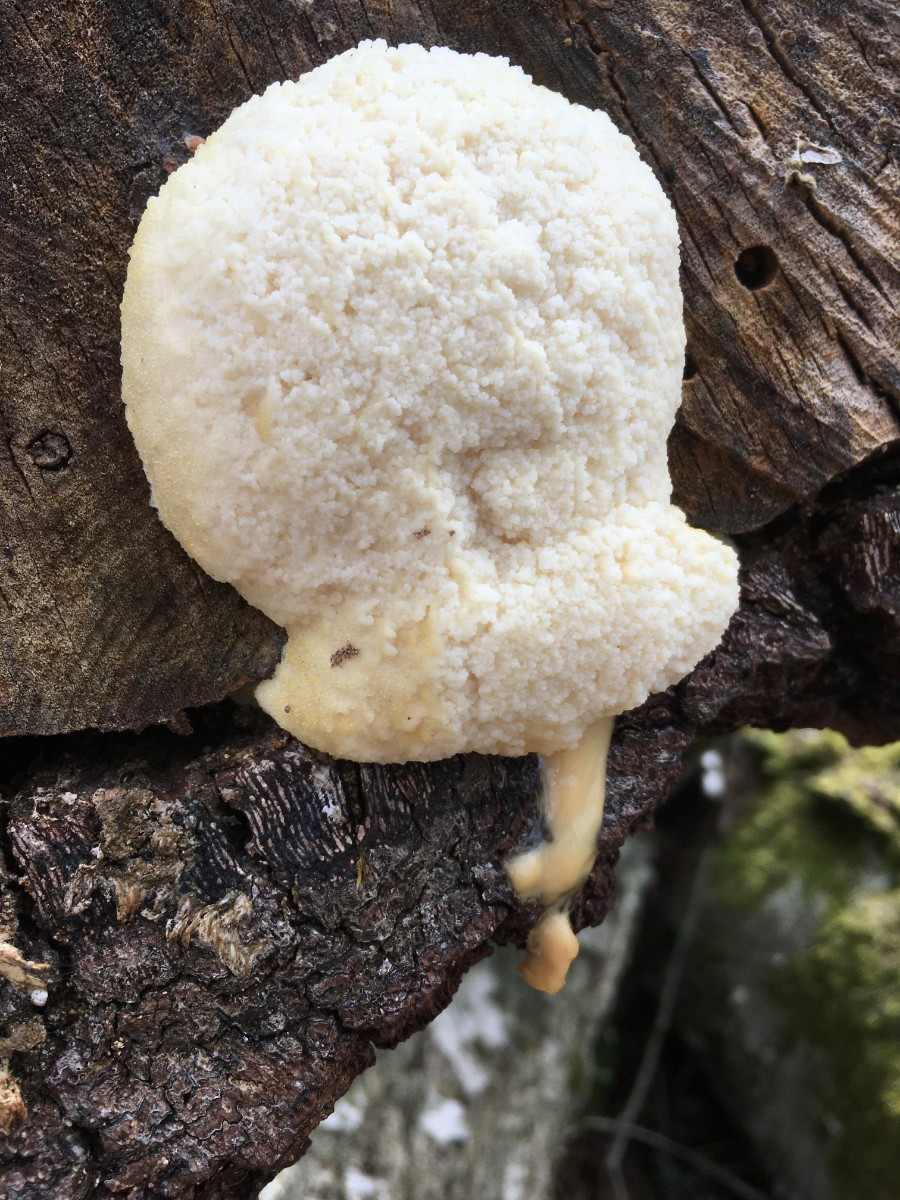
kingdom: Protozoa
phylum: Mycetozoa
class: Myxomycetes
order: Cribrariales
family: Tubiferaceae
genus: Reticularia
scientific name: Reticularia lycoperdon
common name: skinnende støvpude
